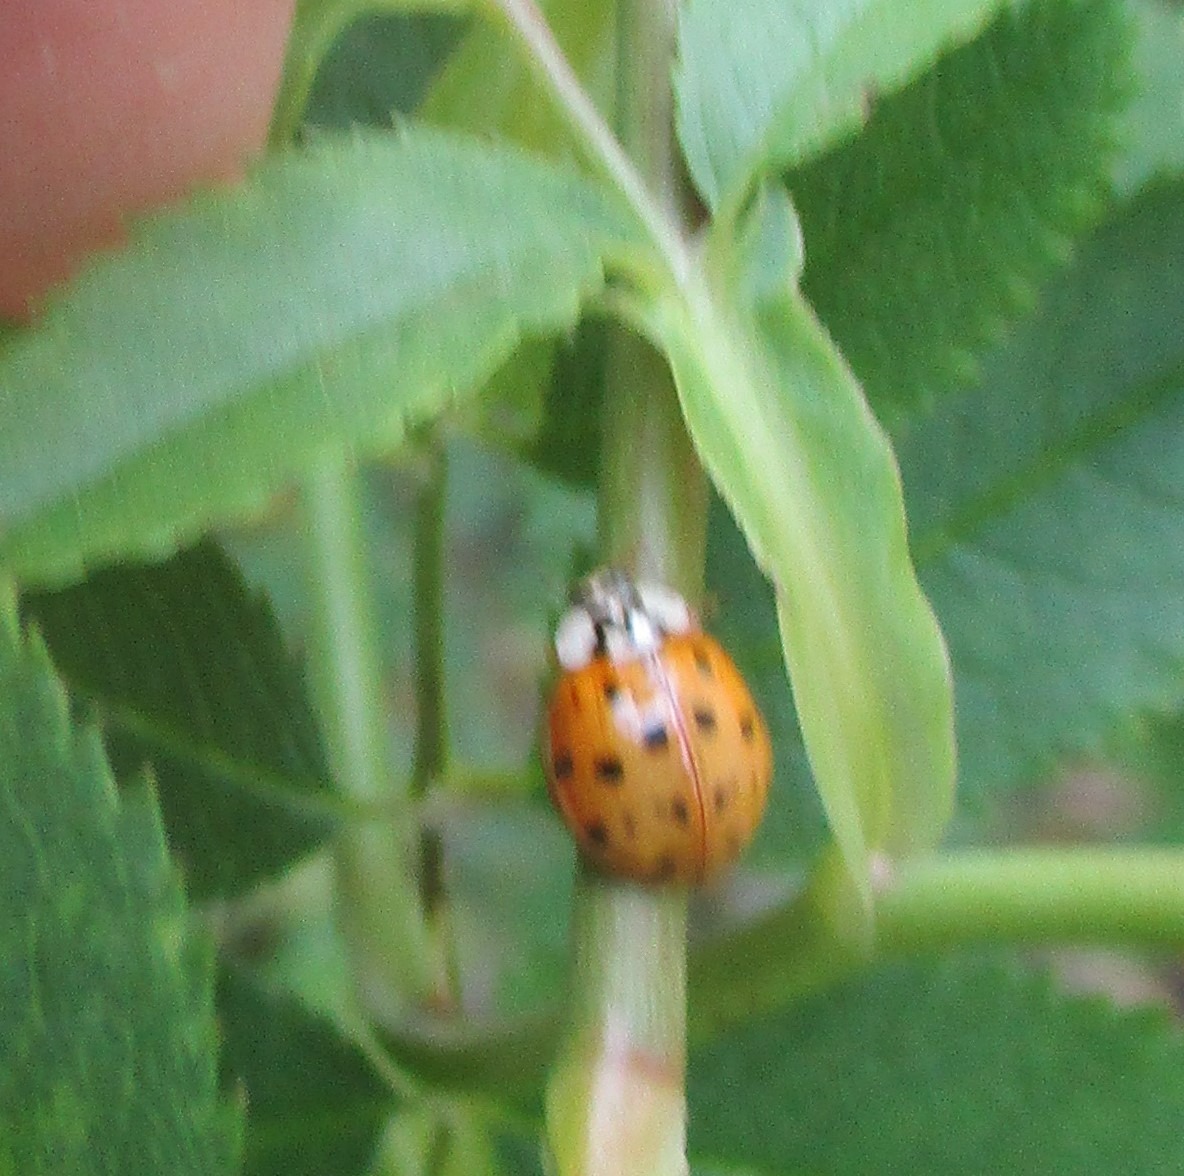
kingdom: Animalia
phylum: Arthropoda
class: Insecta
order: Coleoptera
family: Coccinellidae
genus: Harmonia
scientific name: Harmonia axyridis
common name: Harlekinmariehøne
